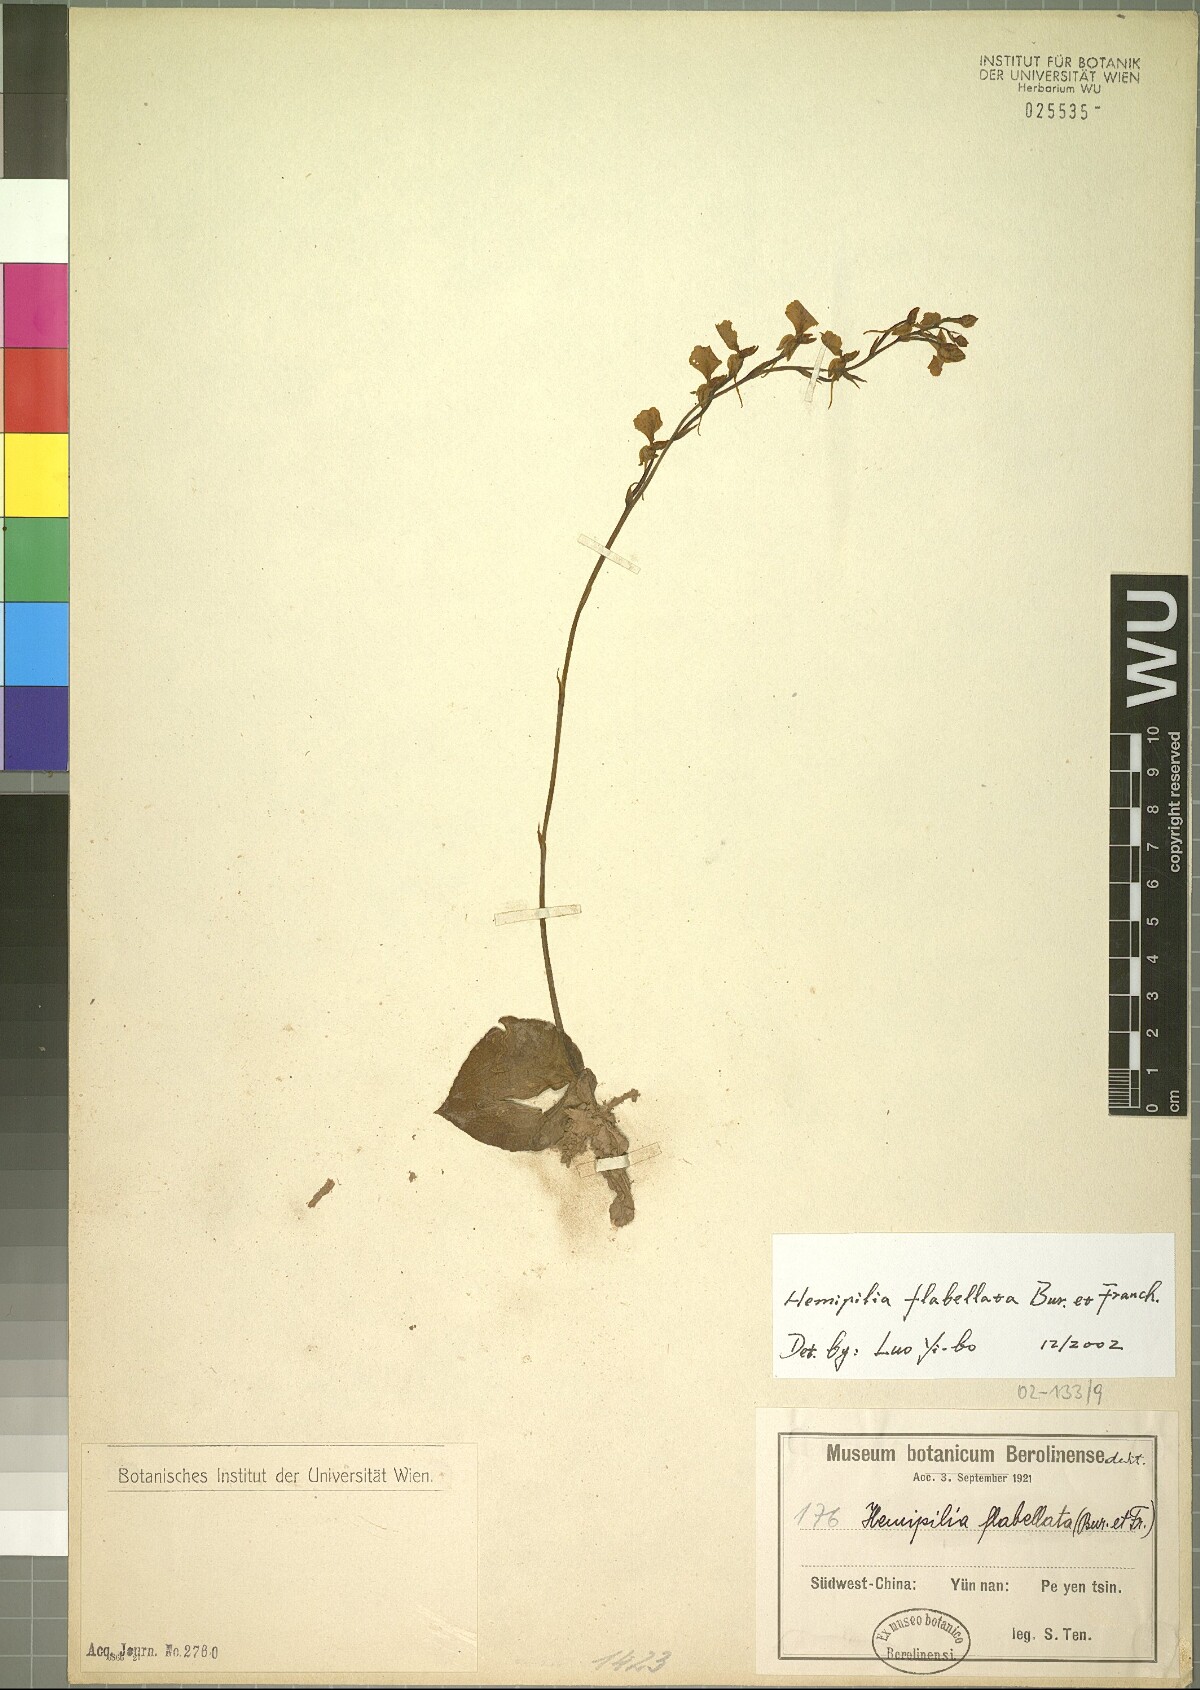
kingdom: Plantae
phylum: Tracheophyta
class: Liliopsida
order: Asparagales
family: Orchidaceae
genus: Hemipilia
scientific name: Hemipilia flabellata
